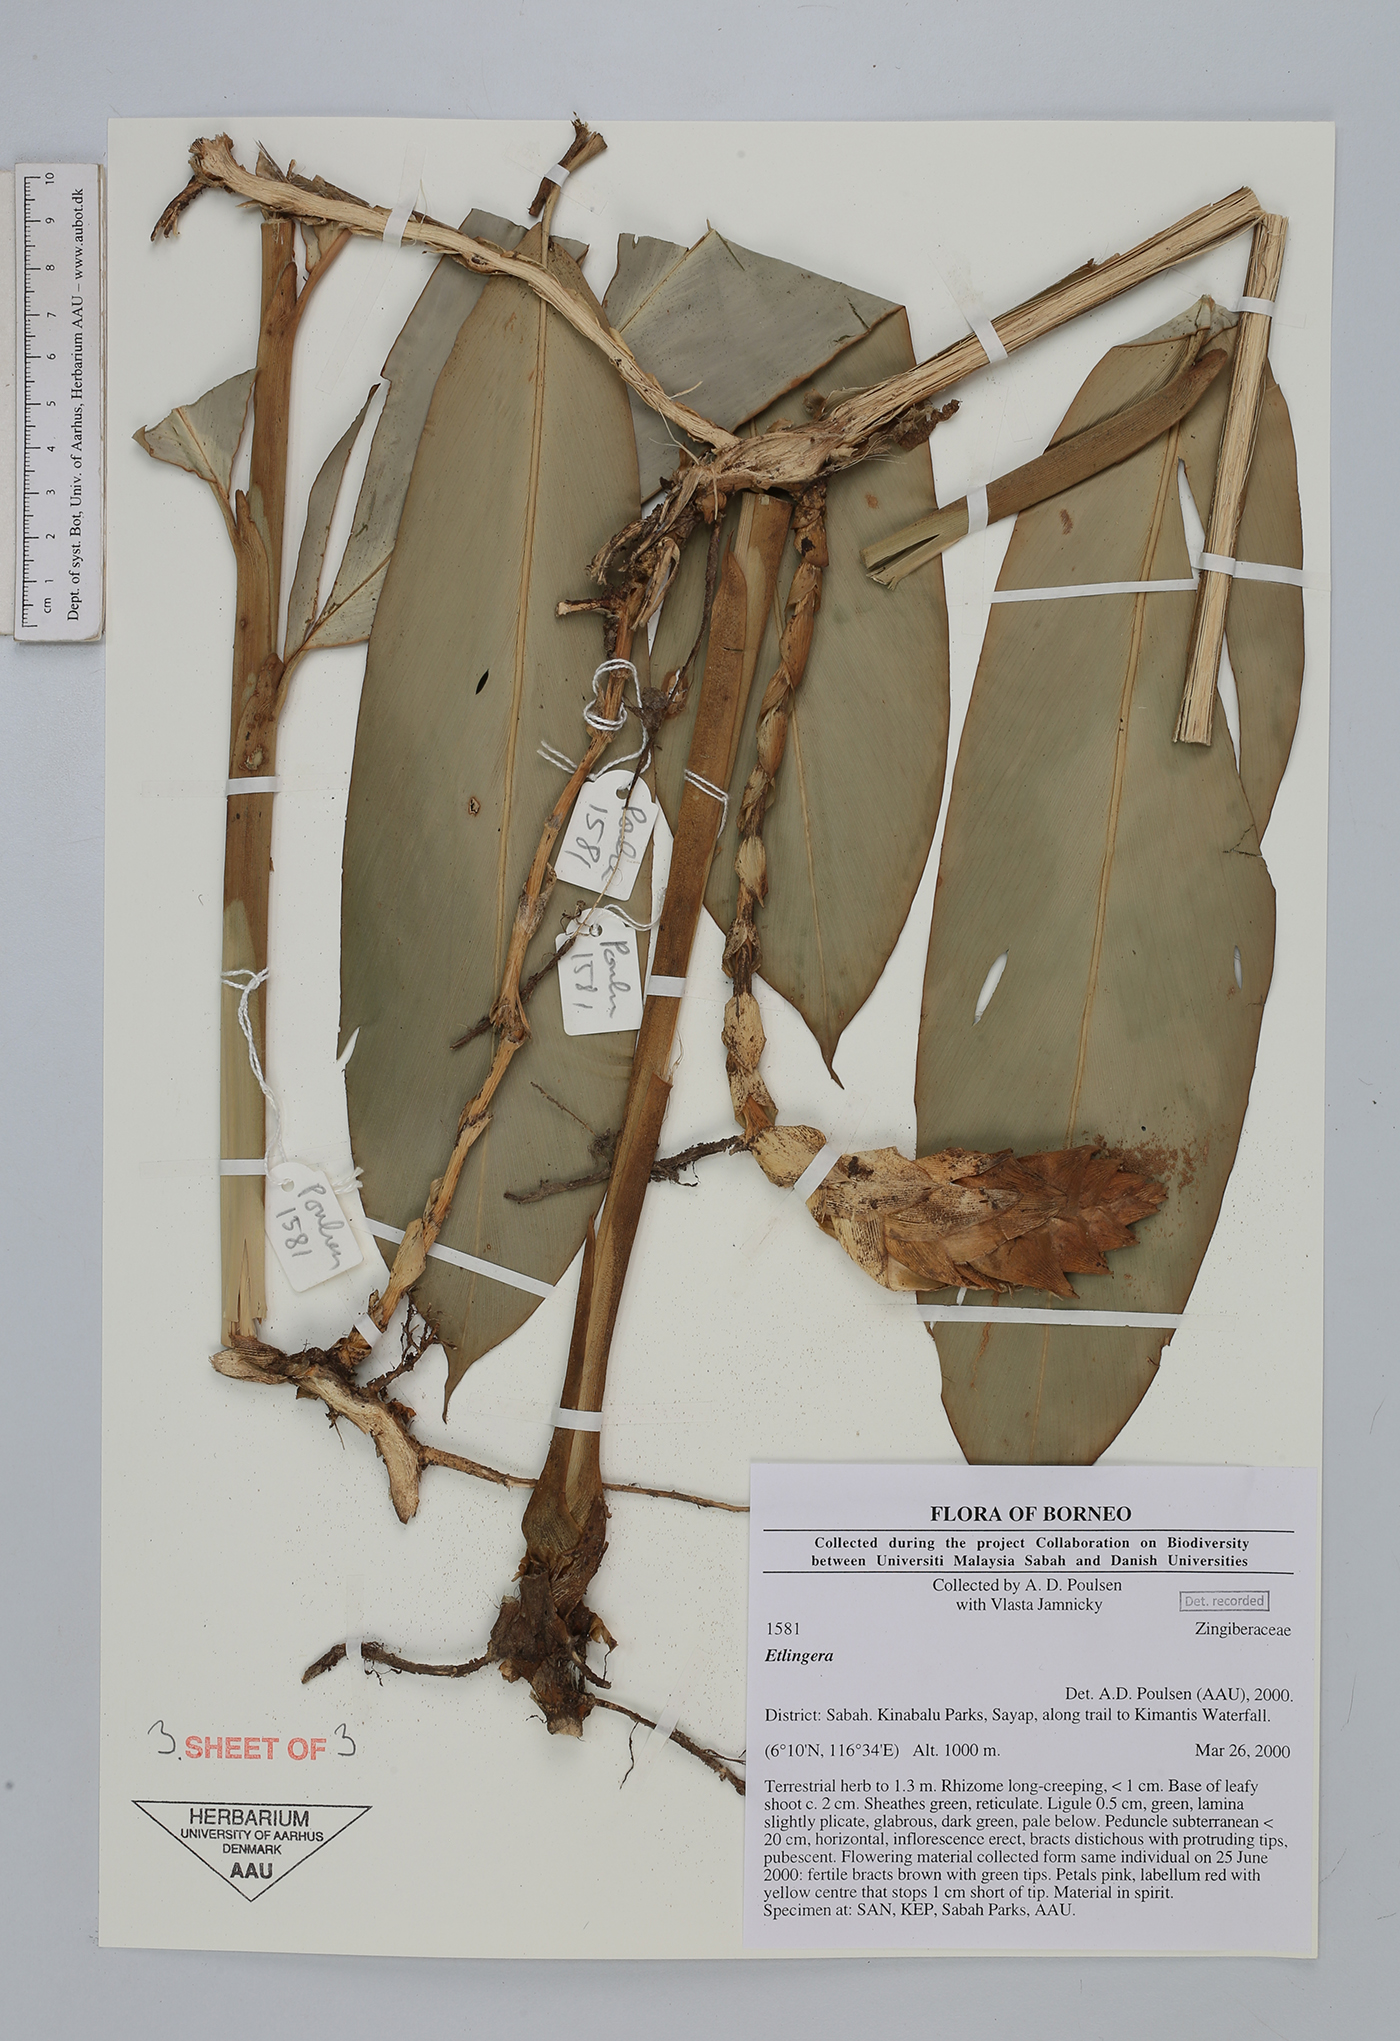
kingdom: Plantae
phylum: Tracheophyta
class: Liliopsida
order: Zingiberales
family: Zingiberaceae
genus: Etlingera
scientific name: Etlingera
